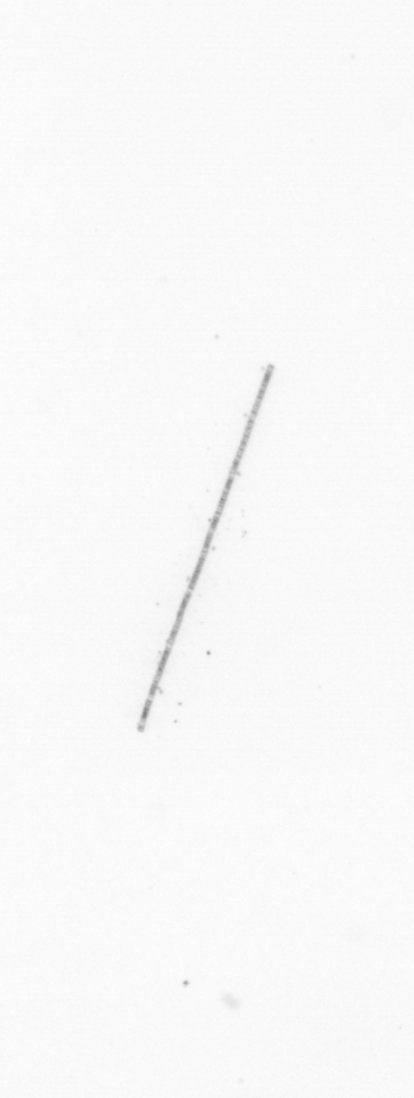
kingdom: Chromista
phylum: Ochrophyta
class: Bacillariophyceae
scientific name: Bacillariophyceae
